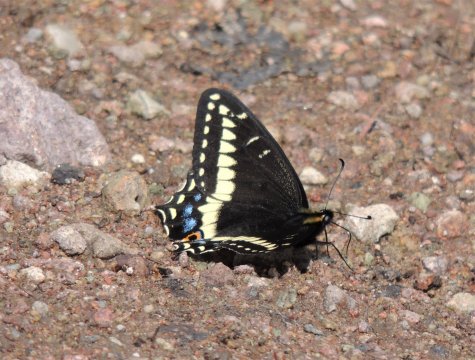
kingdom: Animalia
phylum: Arthropoda
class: Insecta
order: Lepidoptera
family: Papilionidae
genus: Papilio
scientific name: Papilio indra
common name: Indra Swallowtail
